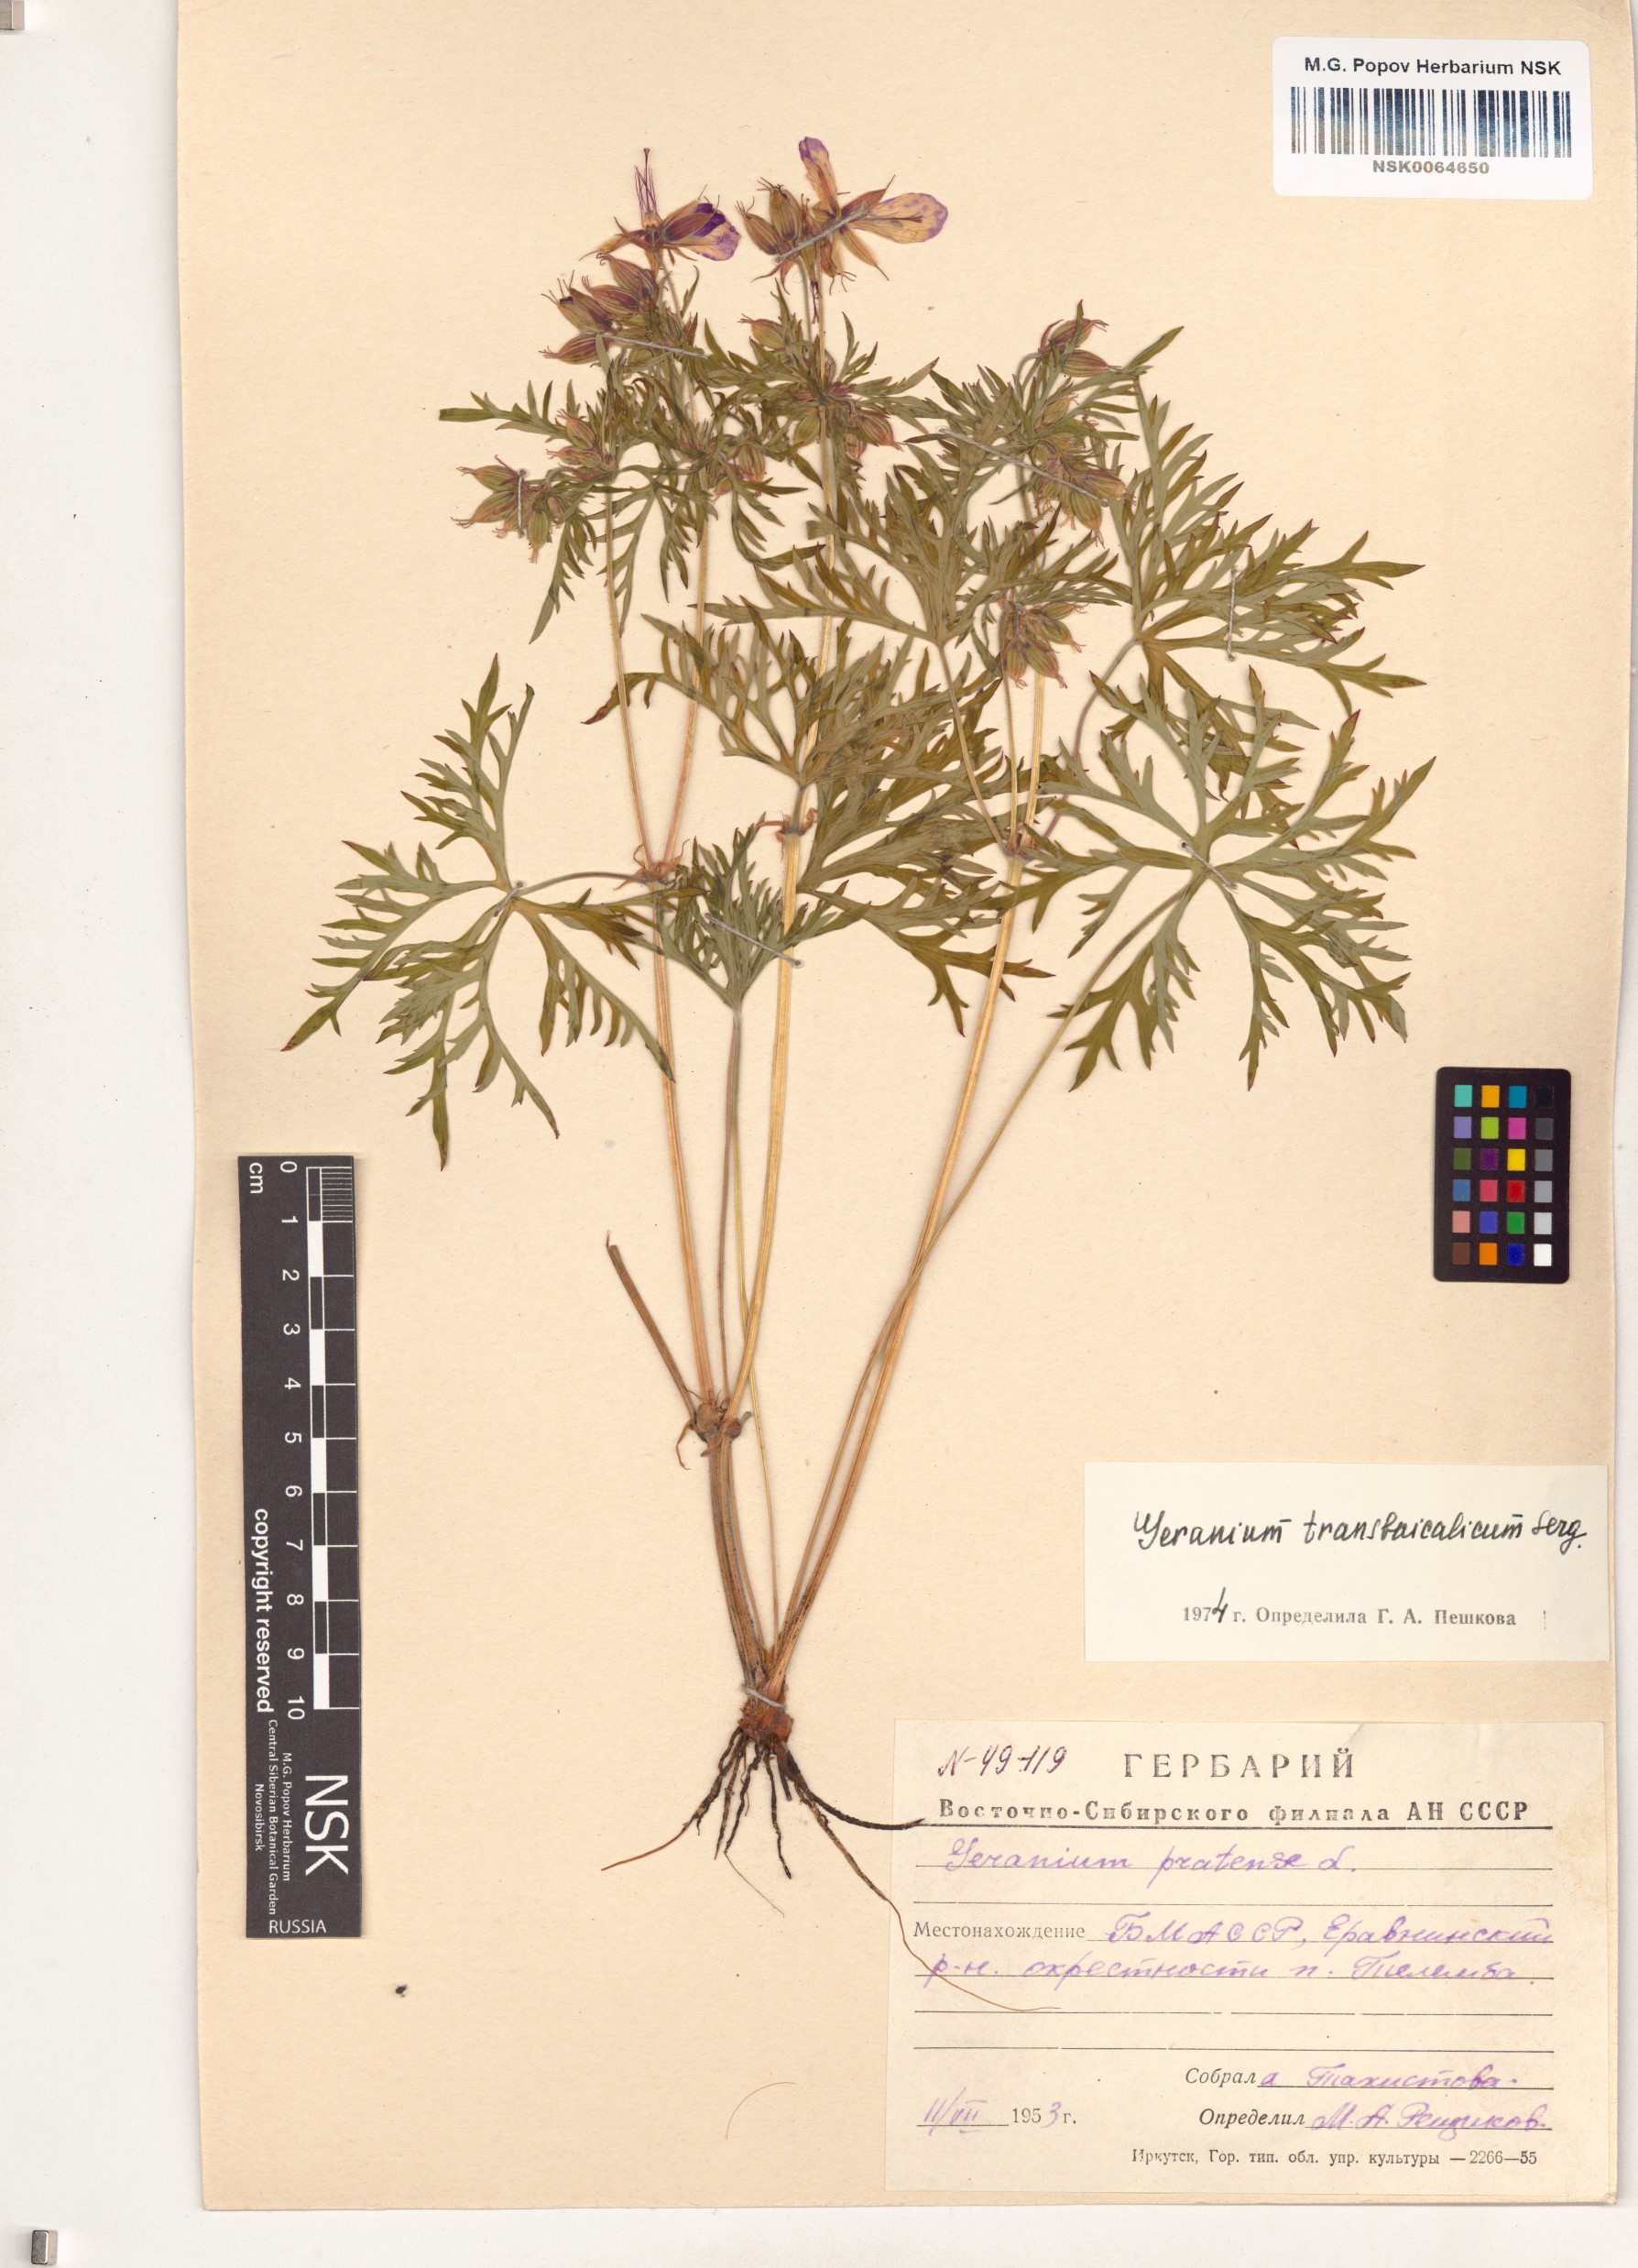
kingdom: Plantae
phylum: Tracheophyta
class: Magnoliopsida
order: Geraniales
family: Geraniaceae
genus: Geranium
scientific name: Geranium pratense
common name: Meadow crane's-bill
